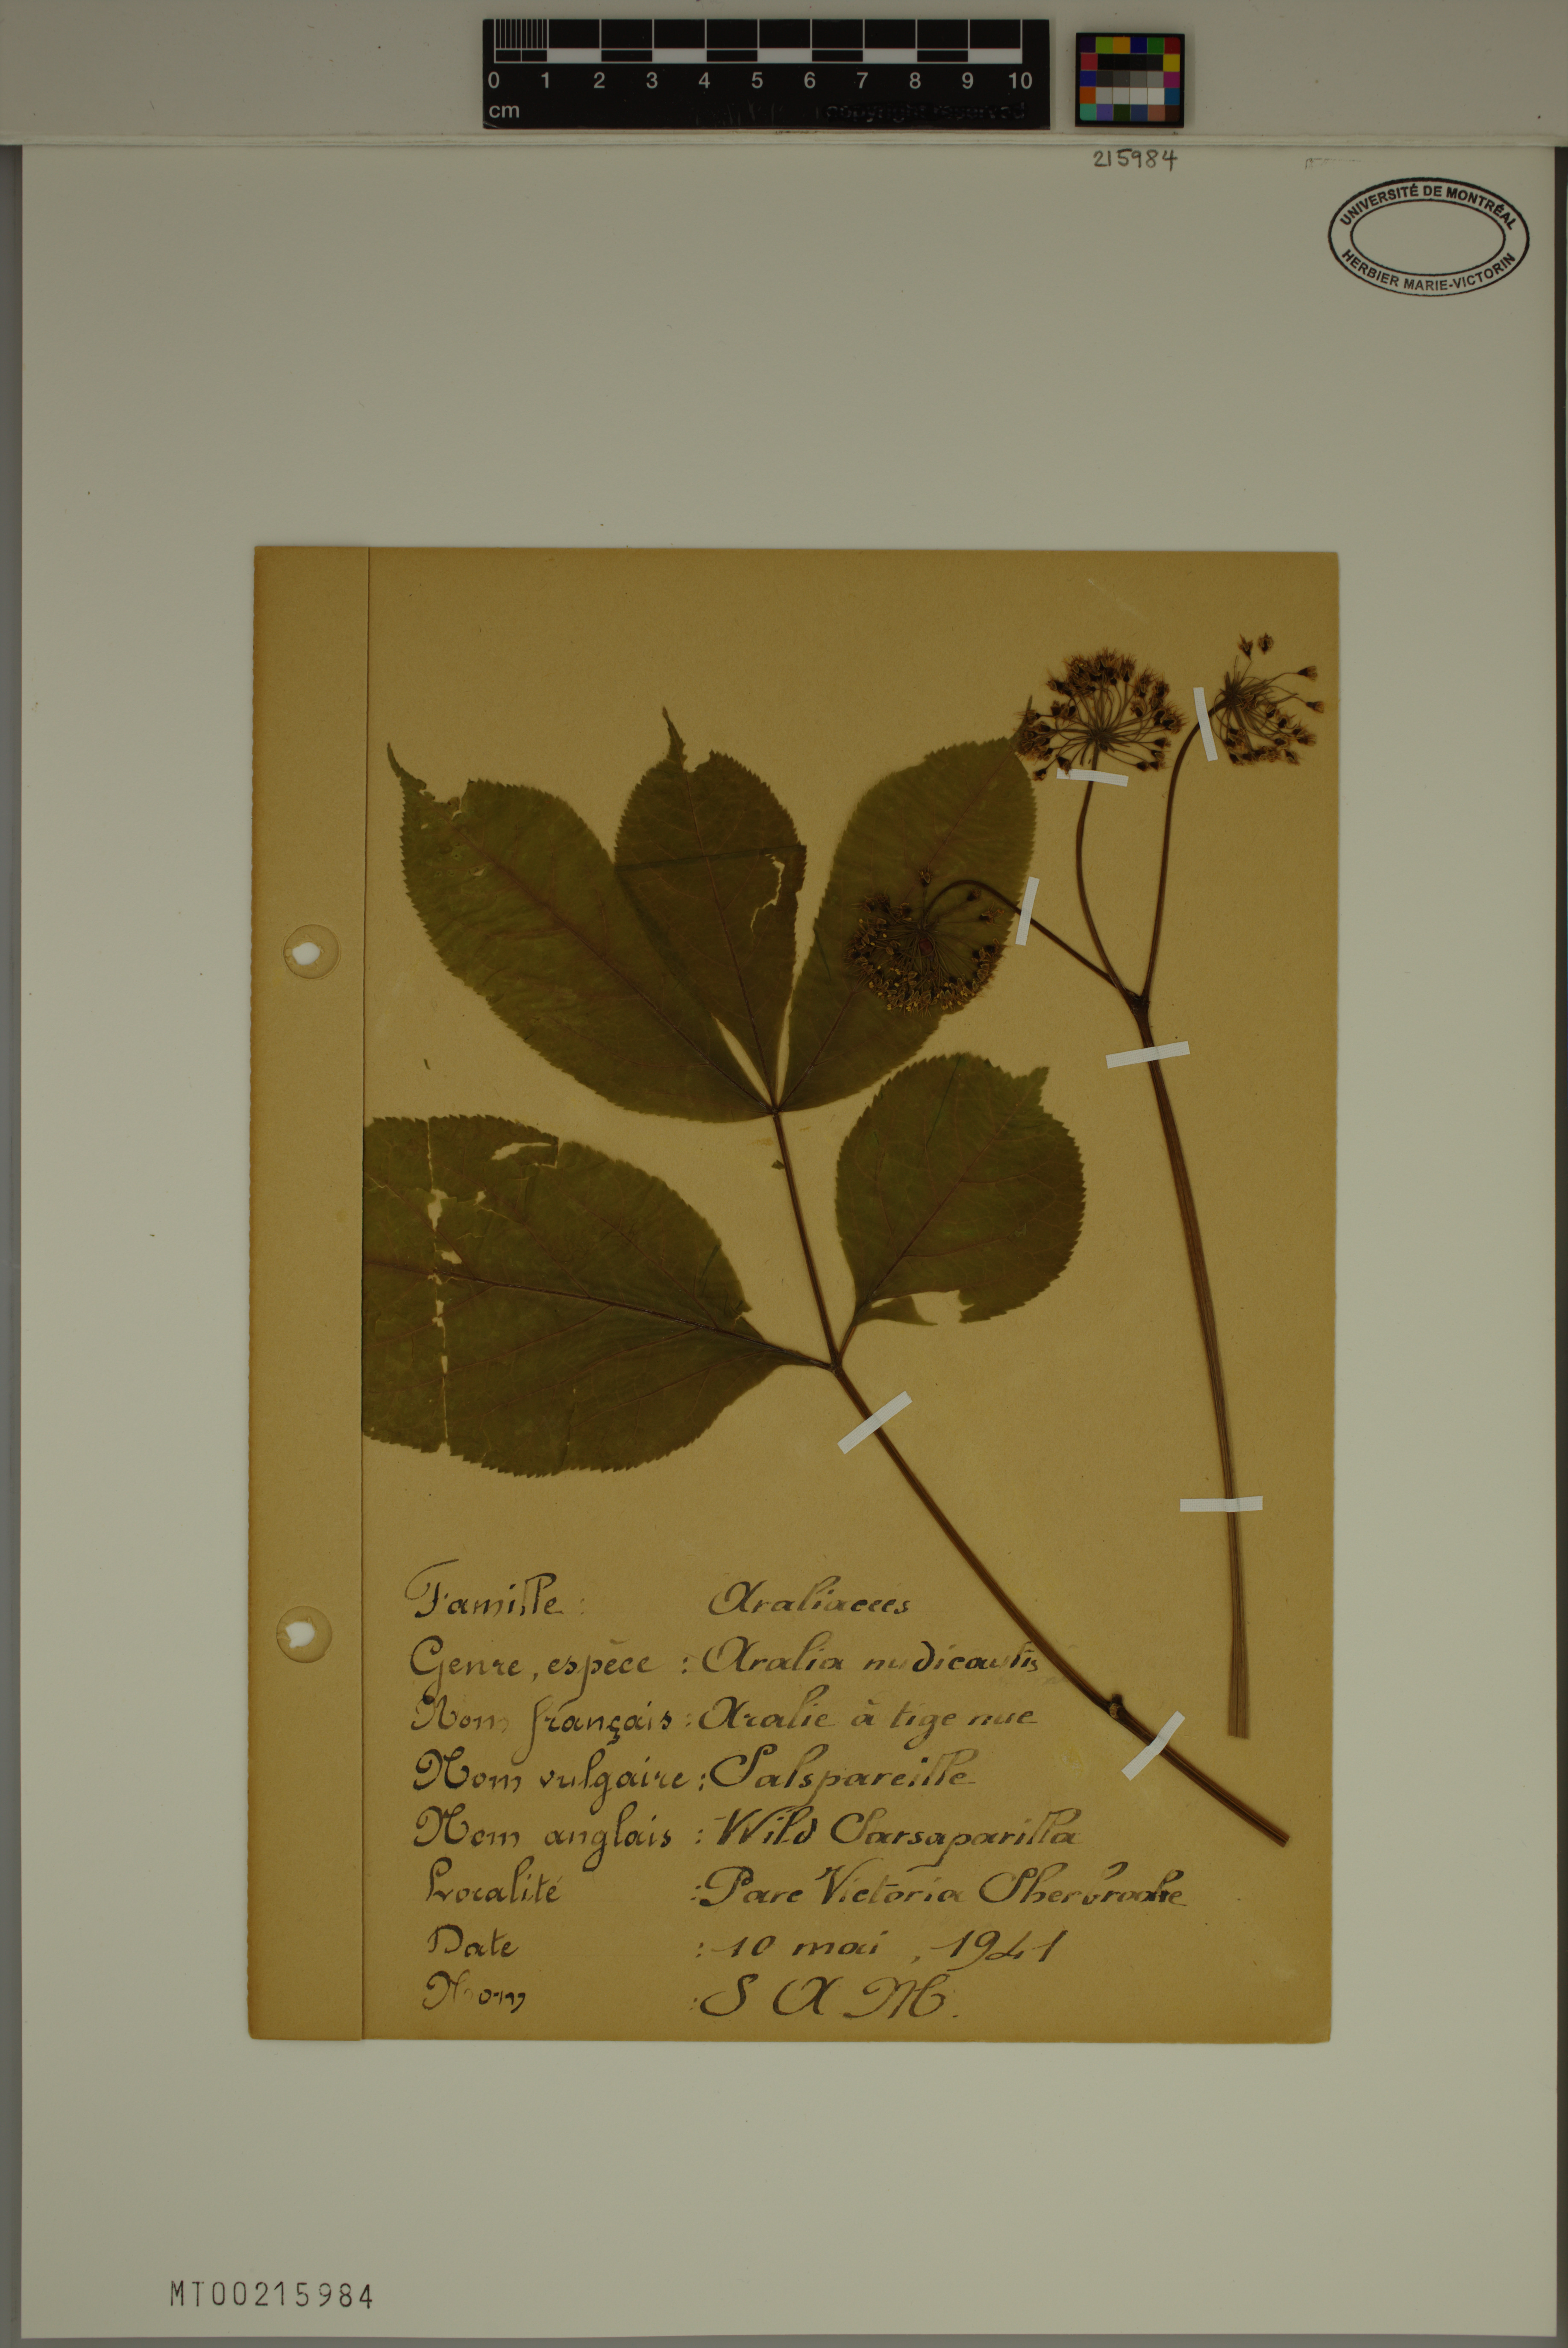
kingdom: Plantae
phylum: Tracheophyta
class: Magnoliopsida
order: Apiales
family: Araliaceae
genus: Aralia
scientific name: Aralia nudicaulis
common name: Wild sarsaparilla
